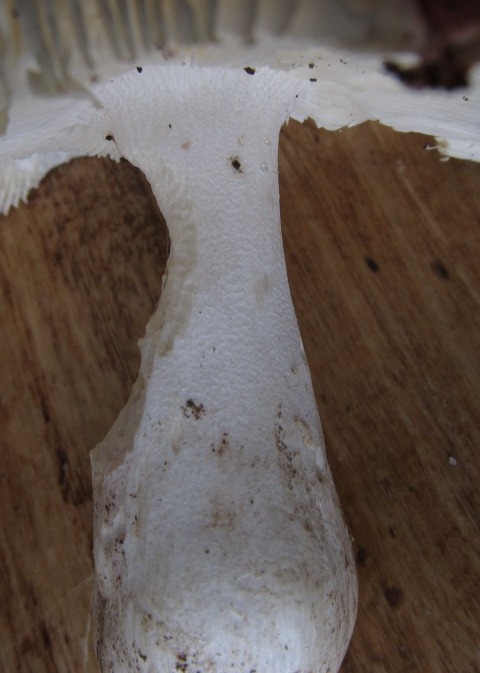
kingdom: Fungi
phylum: Basidiomycota
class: Agaricomycetes
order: Russulales
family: Russulaceae
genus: Russula
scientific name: Russula aurora
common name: rosa skørhat
